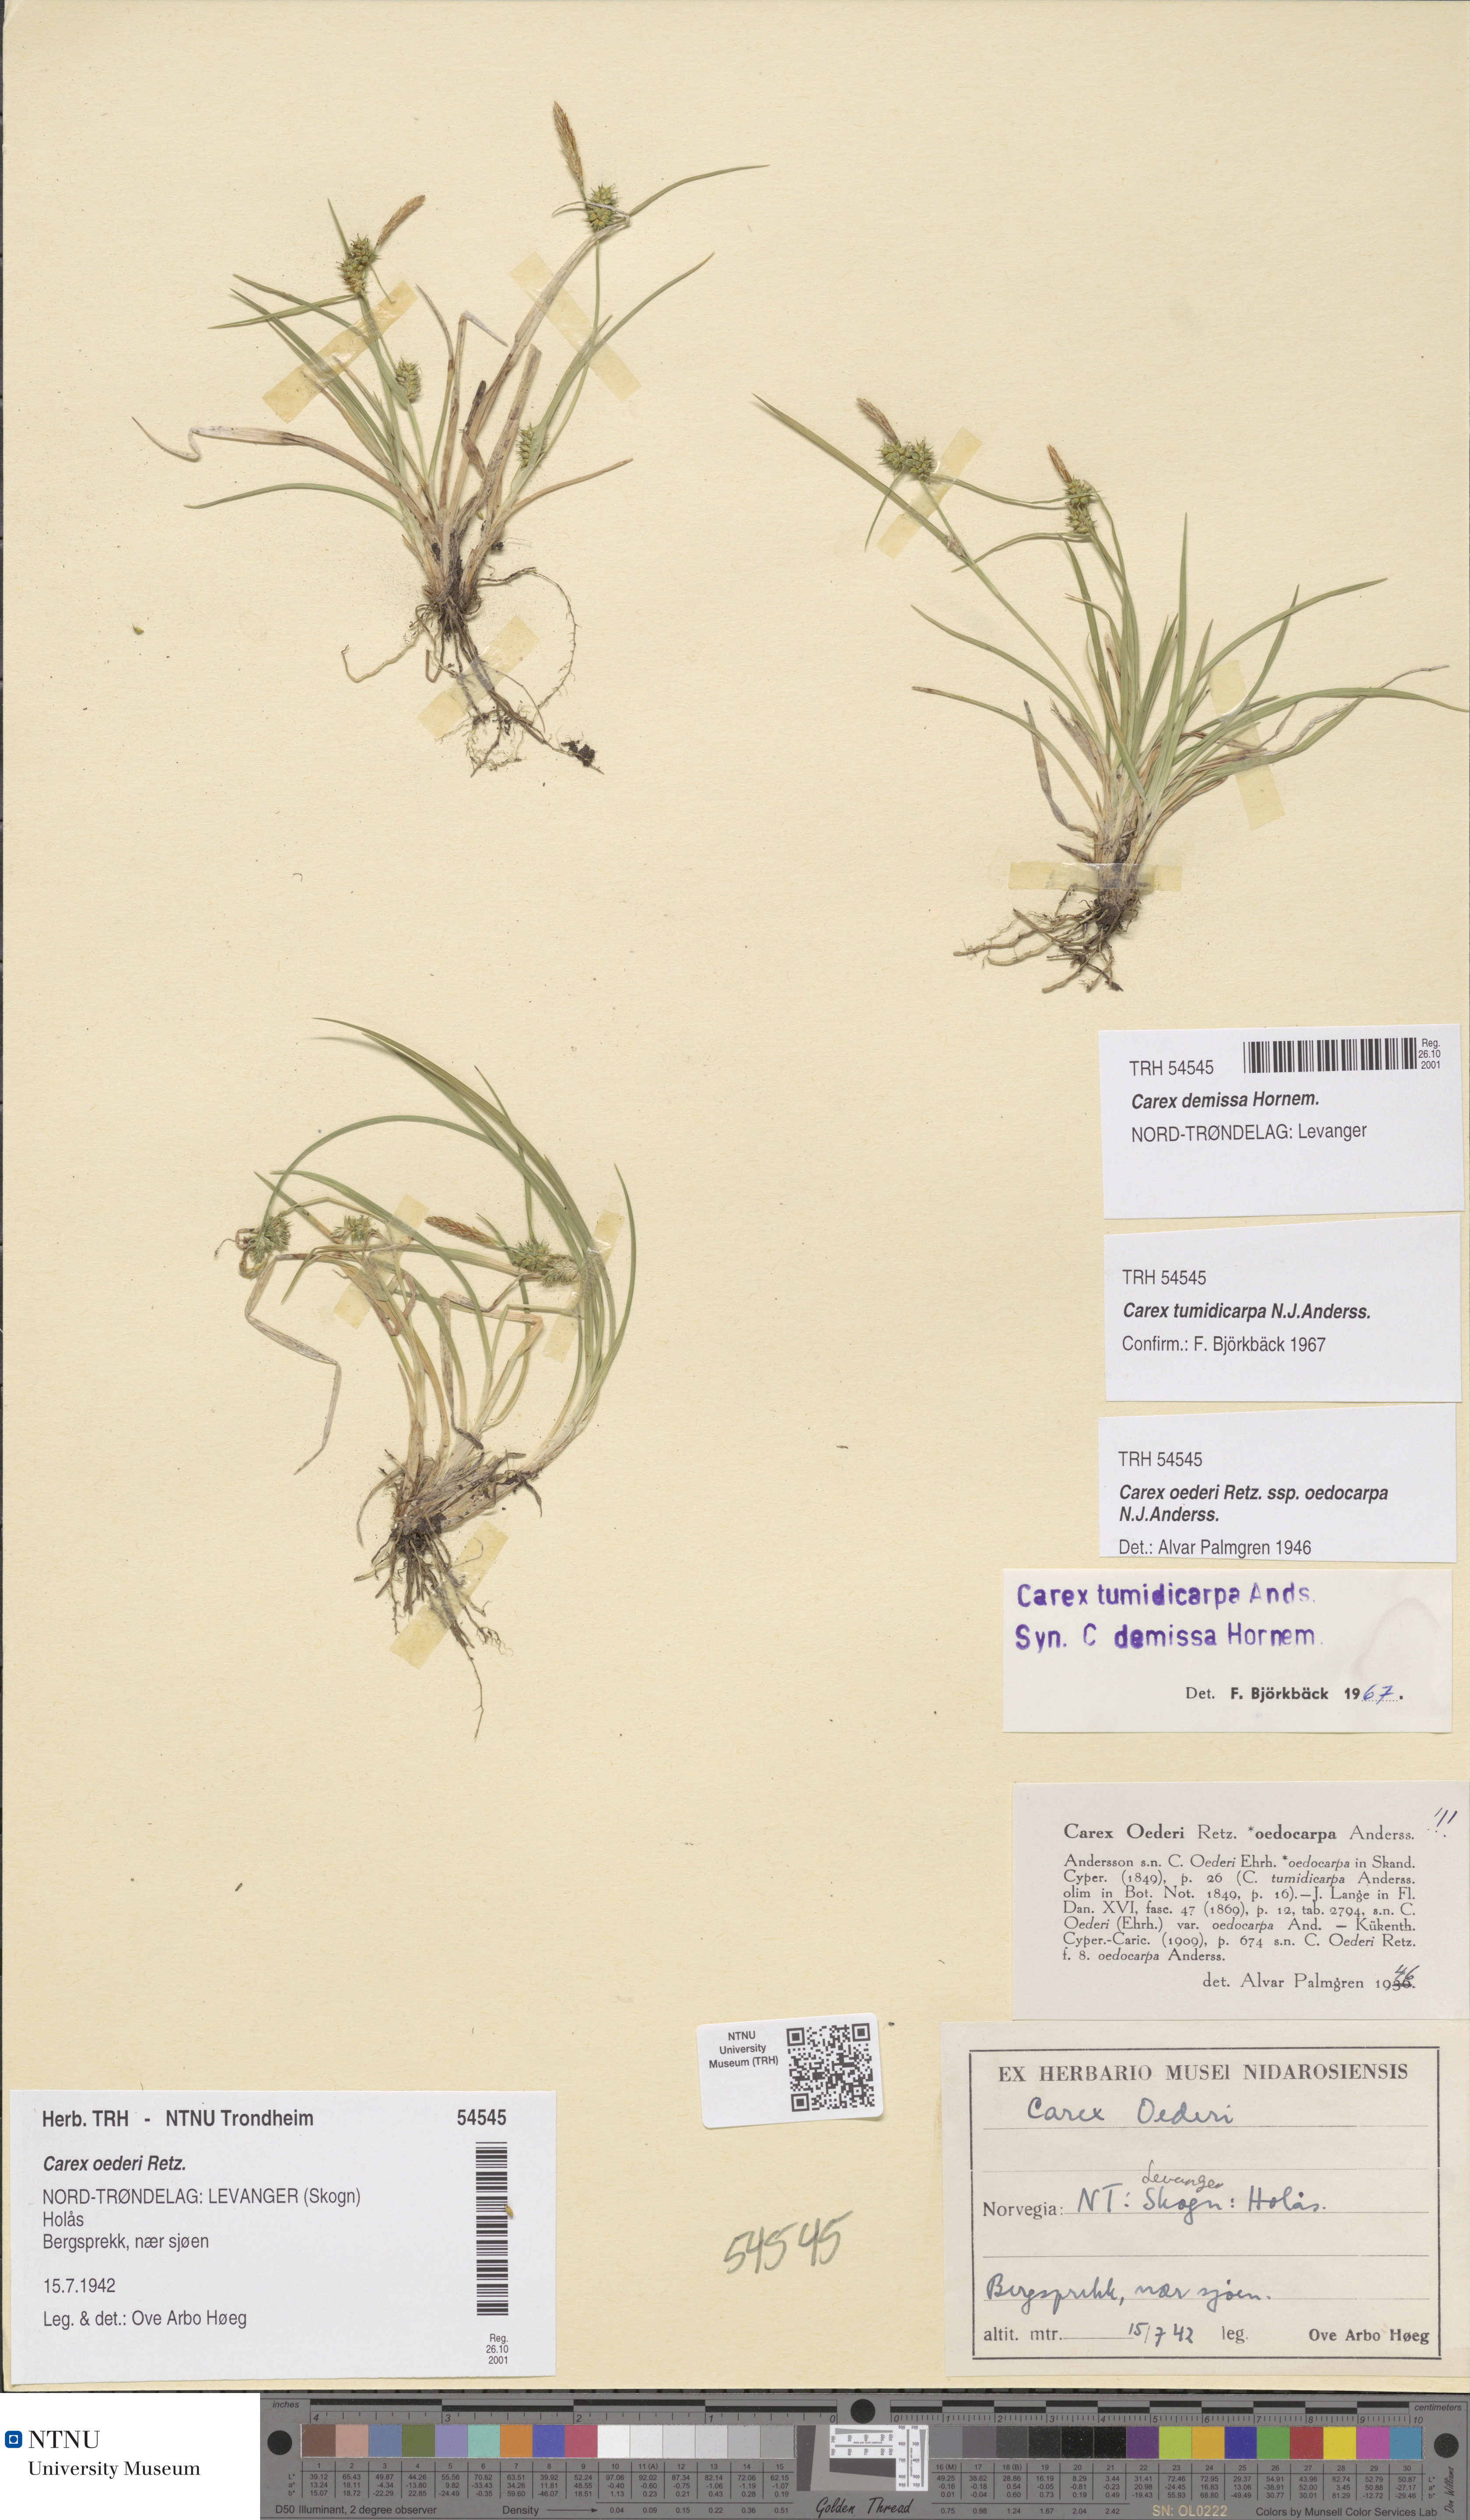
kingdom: Plantae
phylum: Tracheophyta
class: Liliopsida
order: Poales
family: Cyperaceae
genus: Carex
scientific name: Carex demissa
